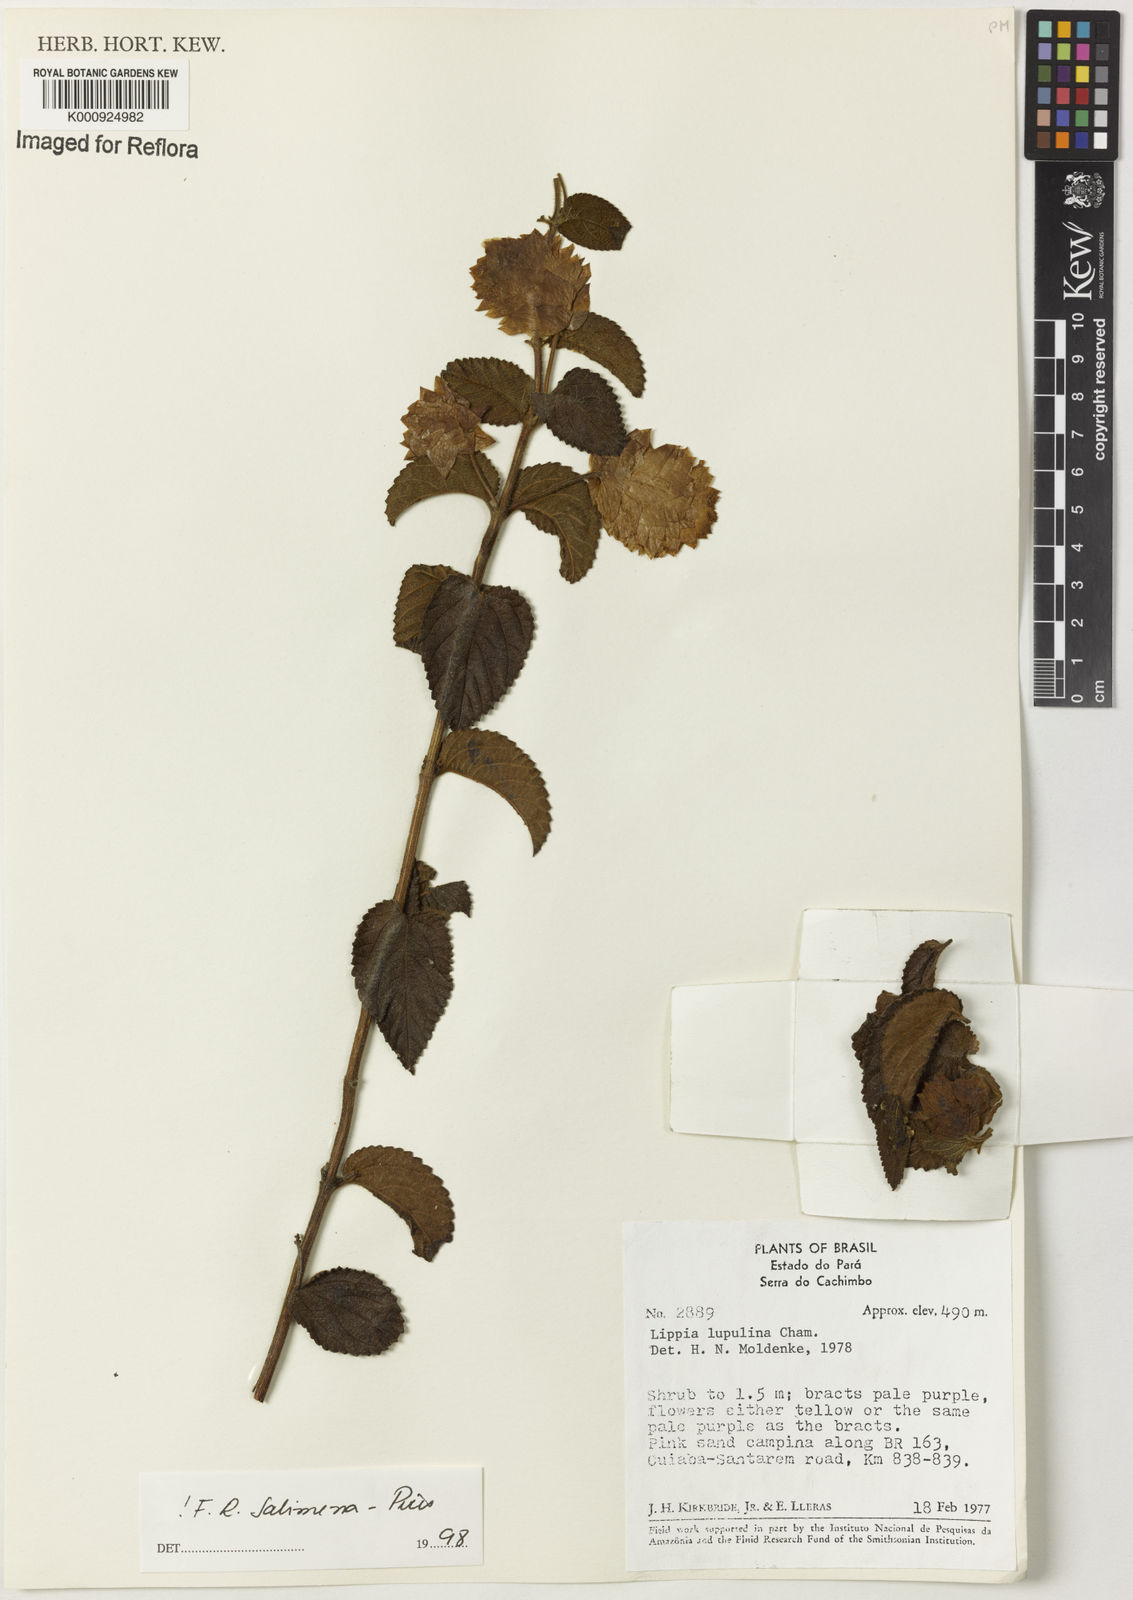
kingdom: Plantae
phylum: Tracheophyta
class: Magnoliopsida
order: Lamiales
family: Verbenaceae
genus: Lippia
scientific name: Lippia lupulina
